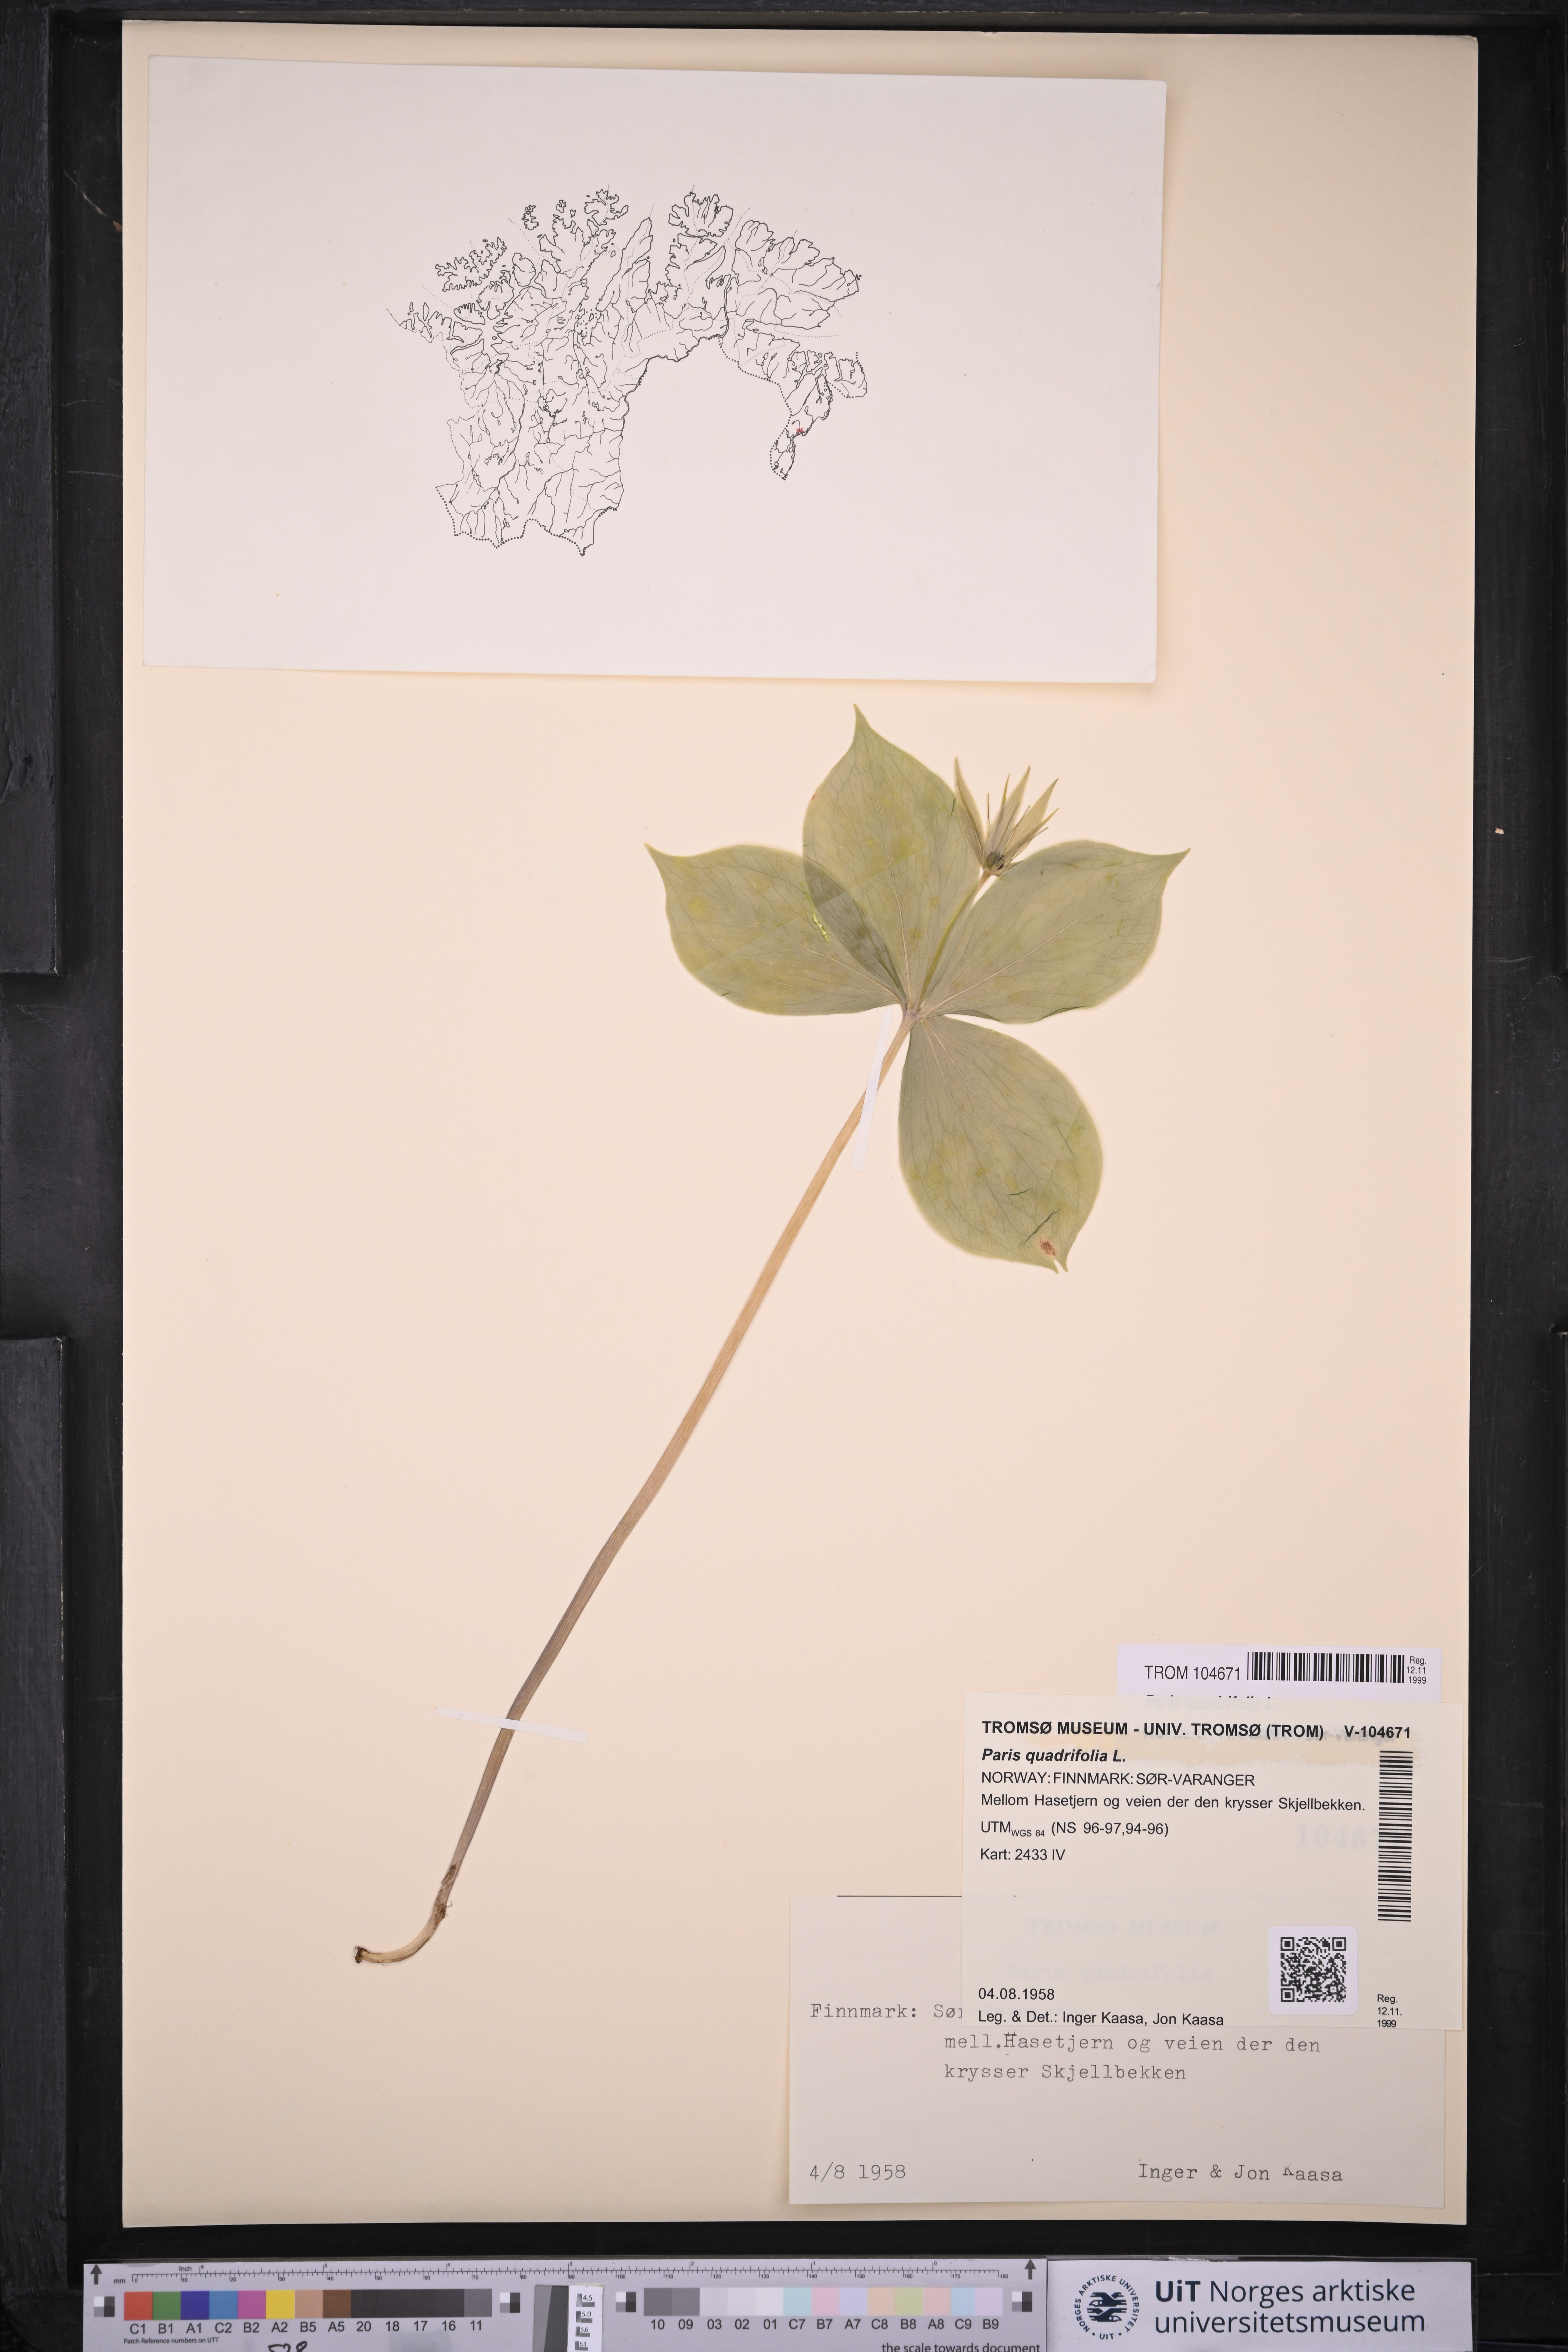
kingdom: Plantae
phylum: Tracheophyta
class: Liliopsida
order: Liliales
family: Melanthiaceae
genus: Paris
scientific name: Paris quadrifolia
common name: Herb-paris
